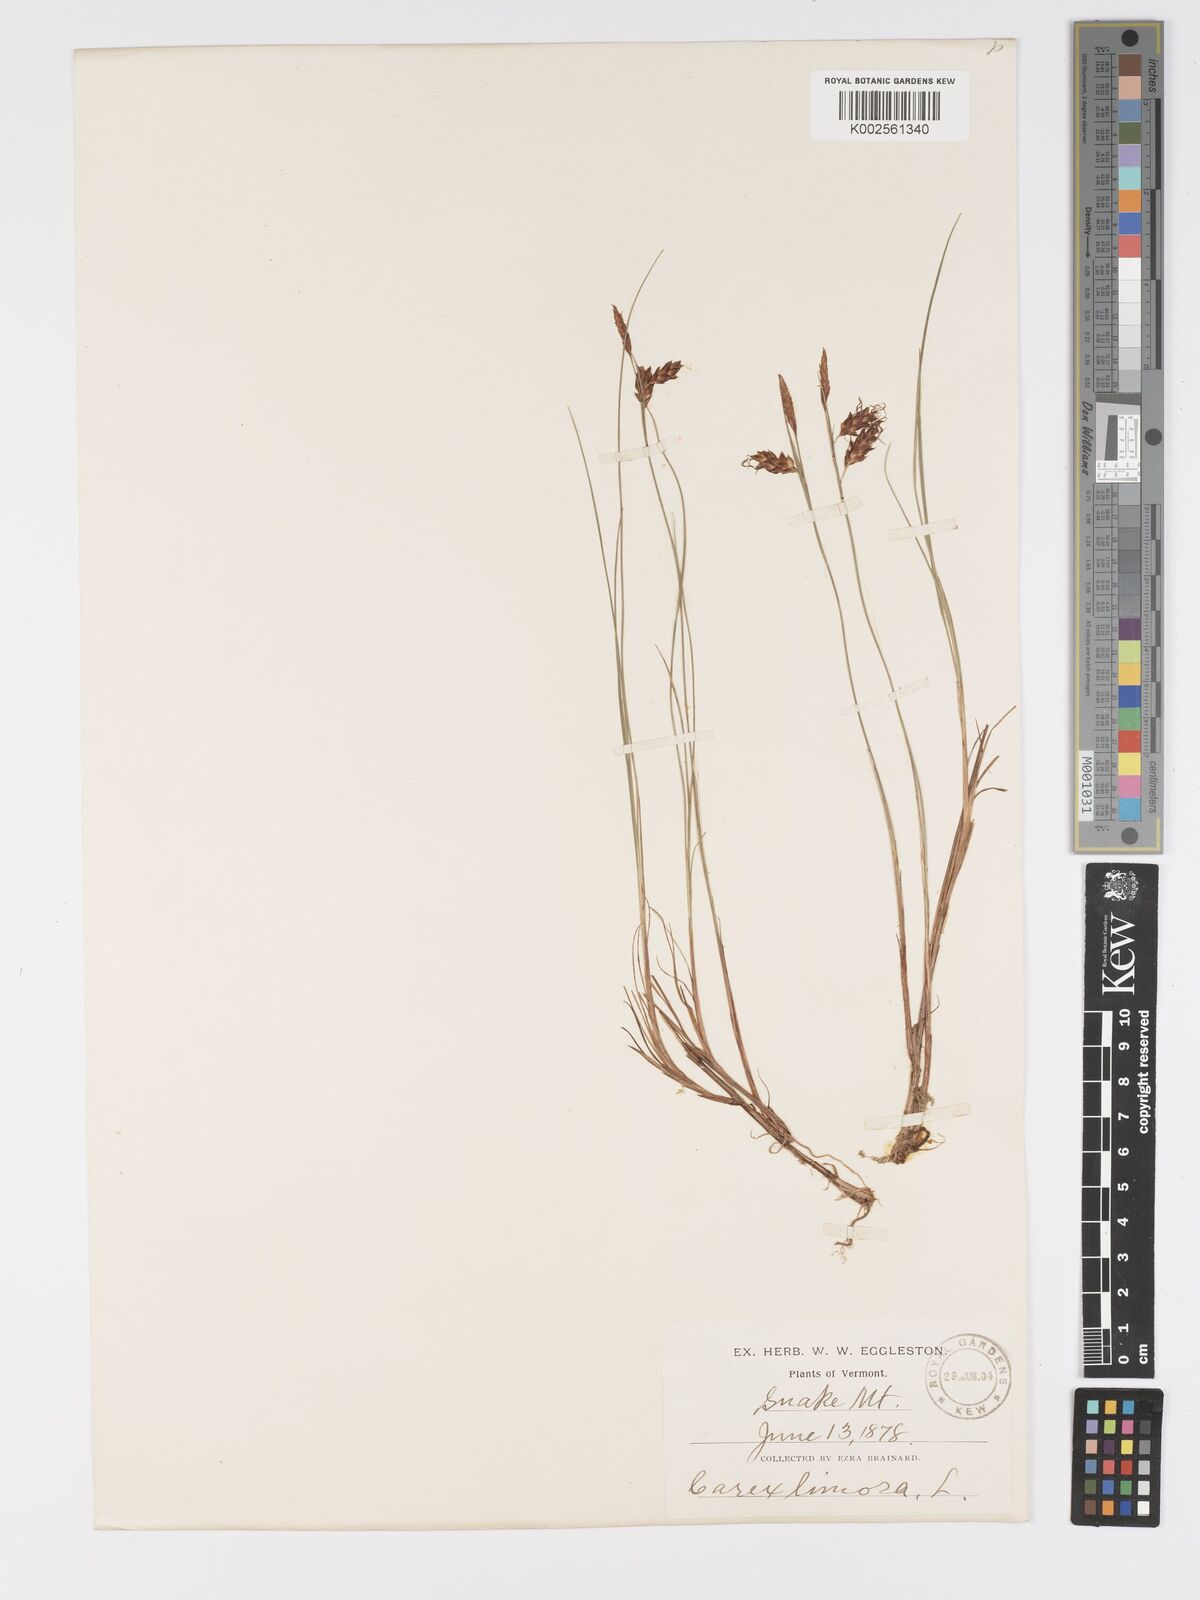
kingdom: Plantae
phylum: Tracheophyta
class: Liliopsida
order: Poales
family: Cyperaceae
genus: Carex
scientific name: Carex magellanica
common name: Bog sedge
